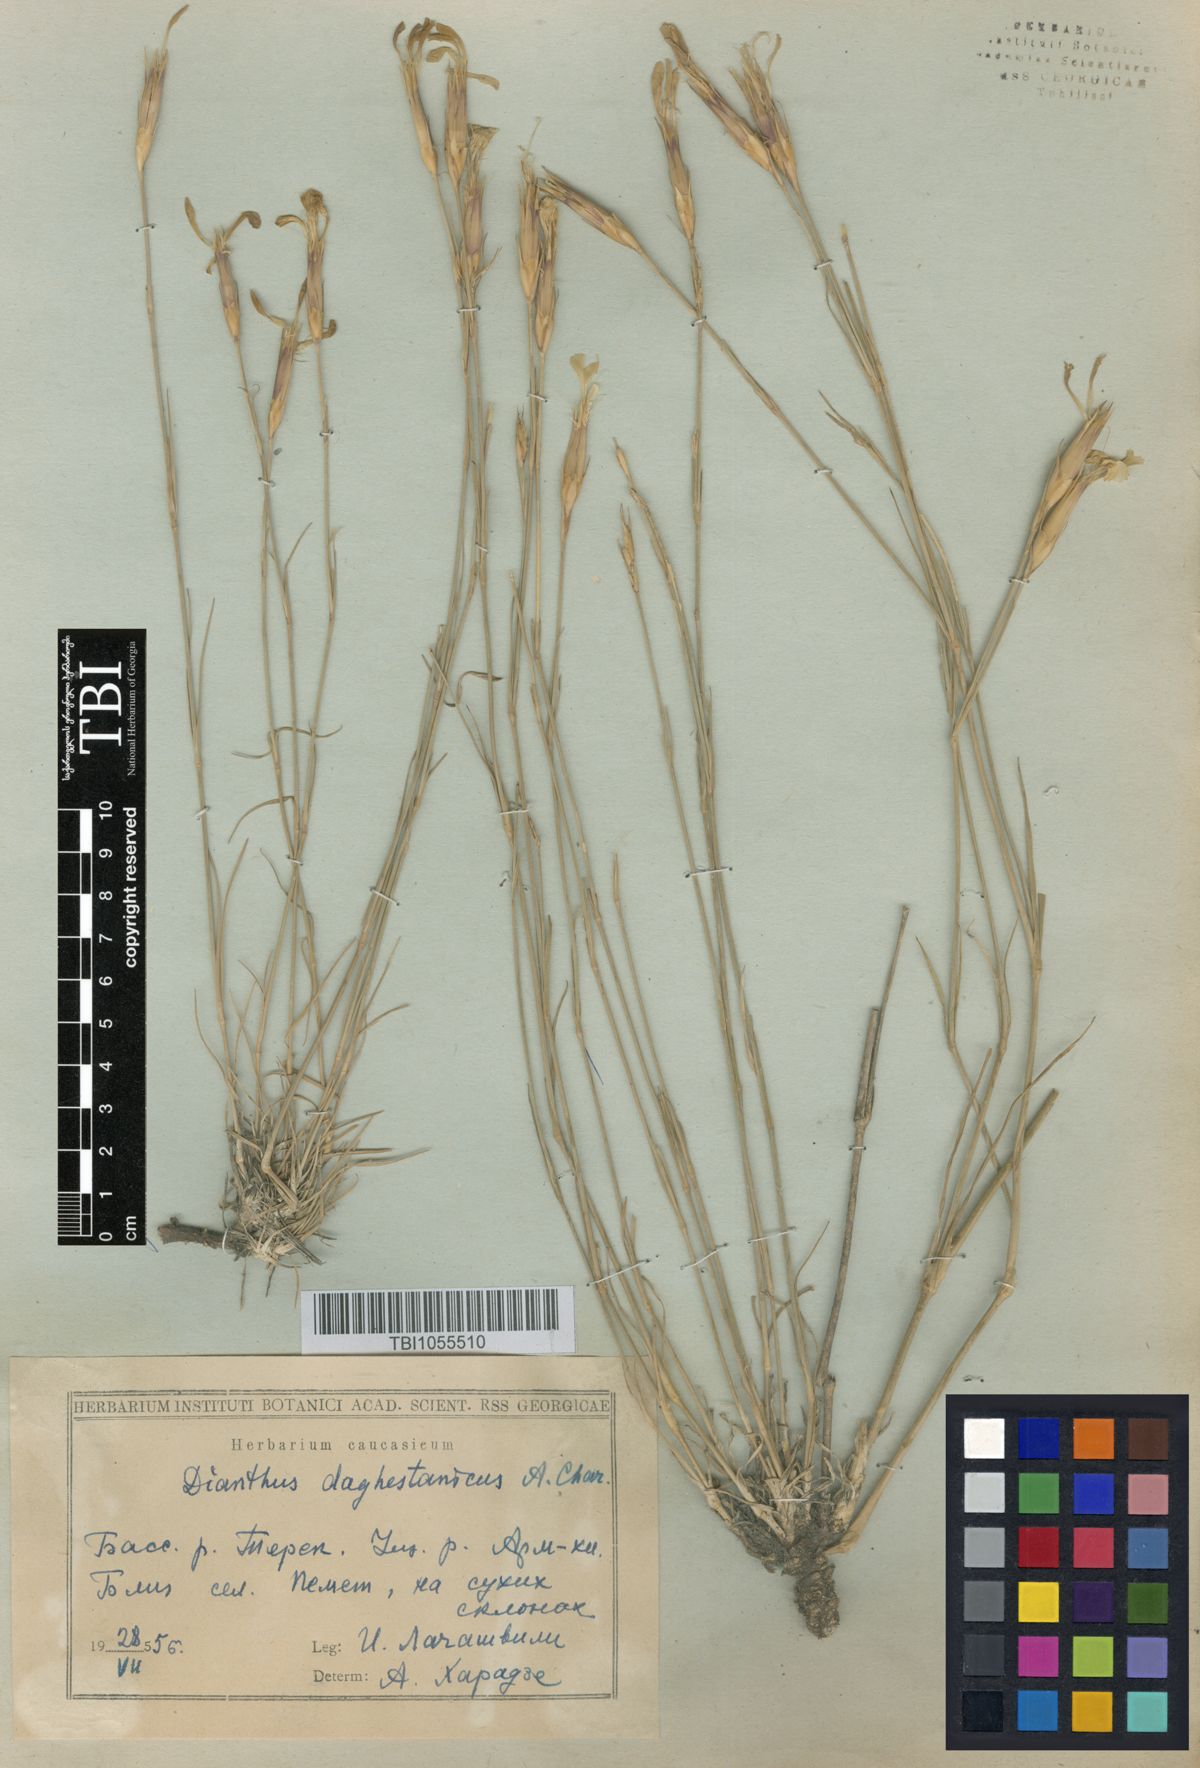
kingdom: Plantae
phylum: Tracheophyta
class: Magnoliopsida
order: Caryophyllales
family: Caryophyllaceae
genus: Dianthus
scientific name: Dianthus daghestanicus
